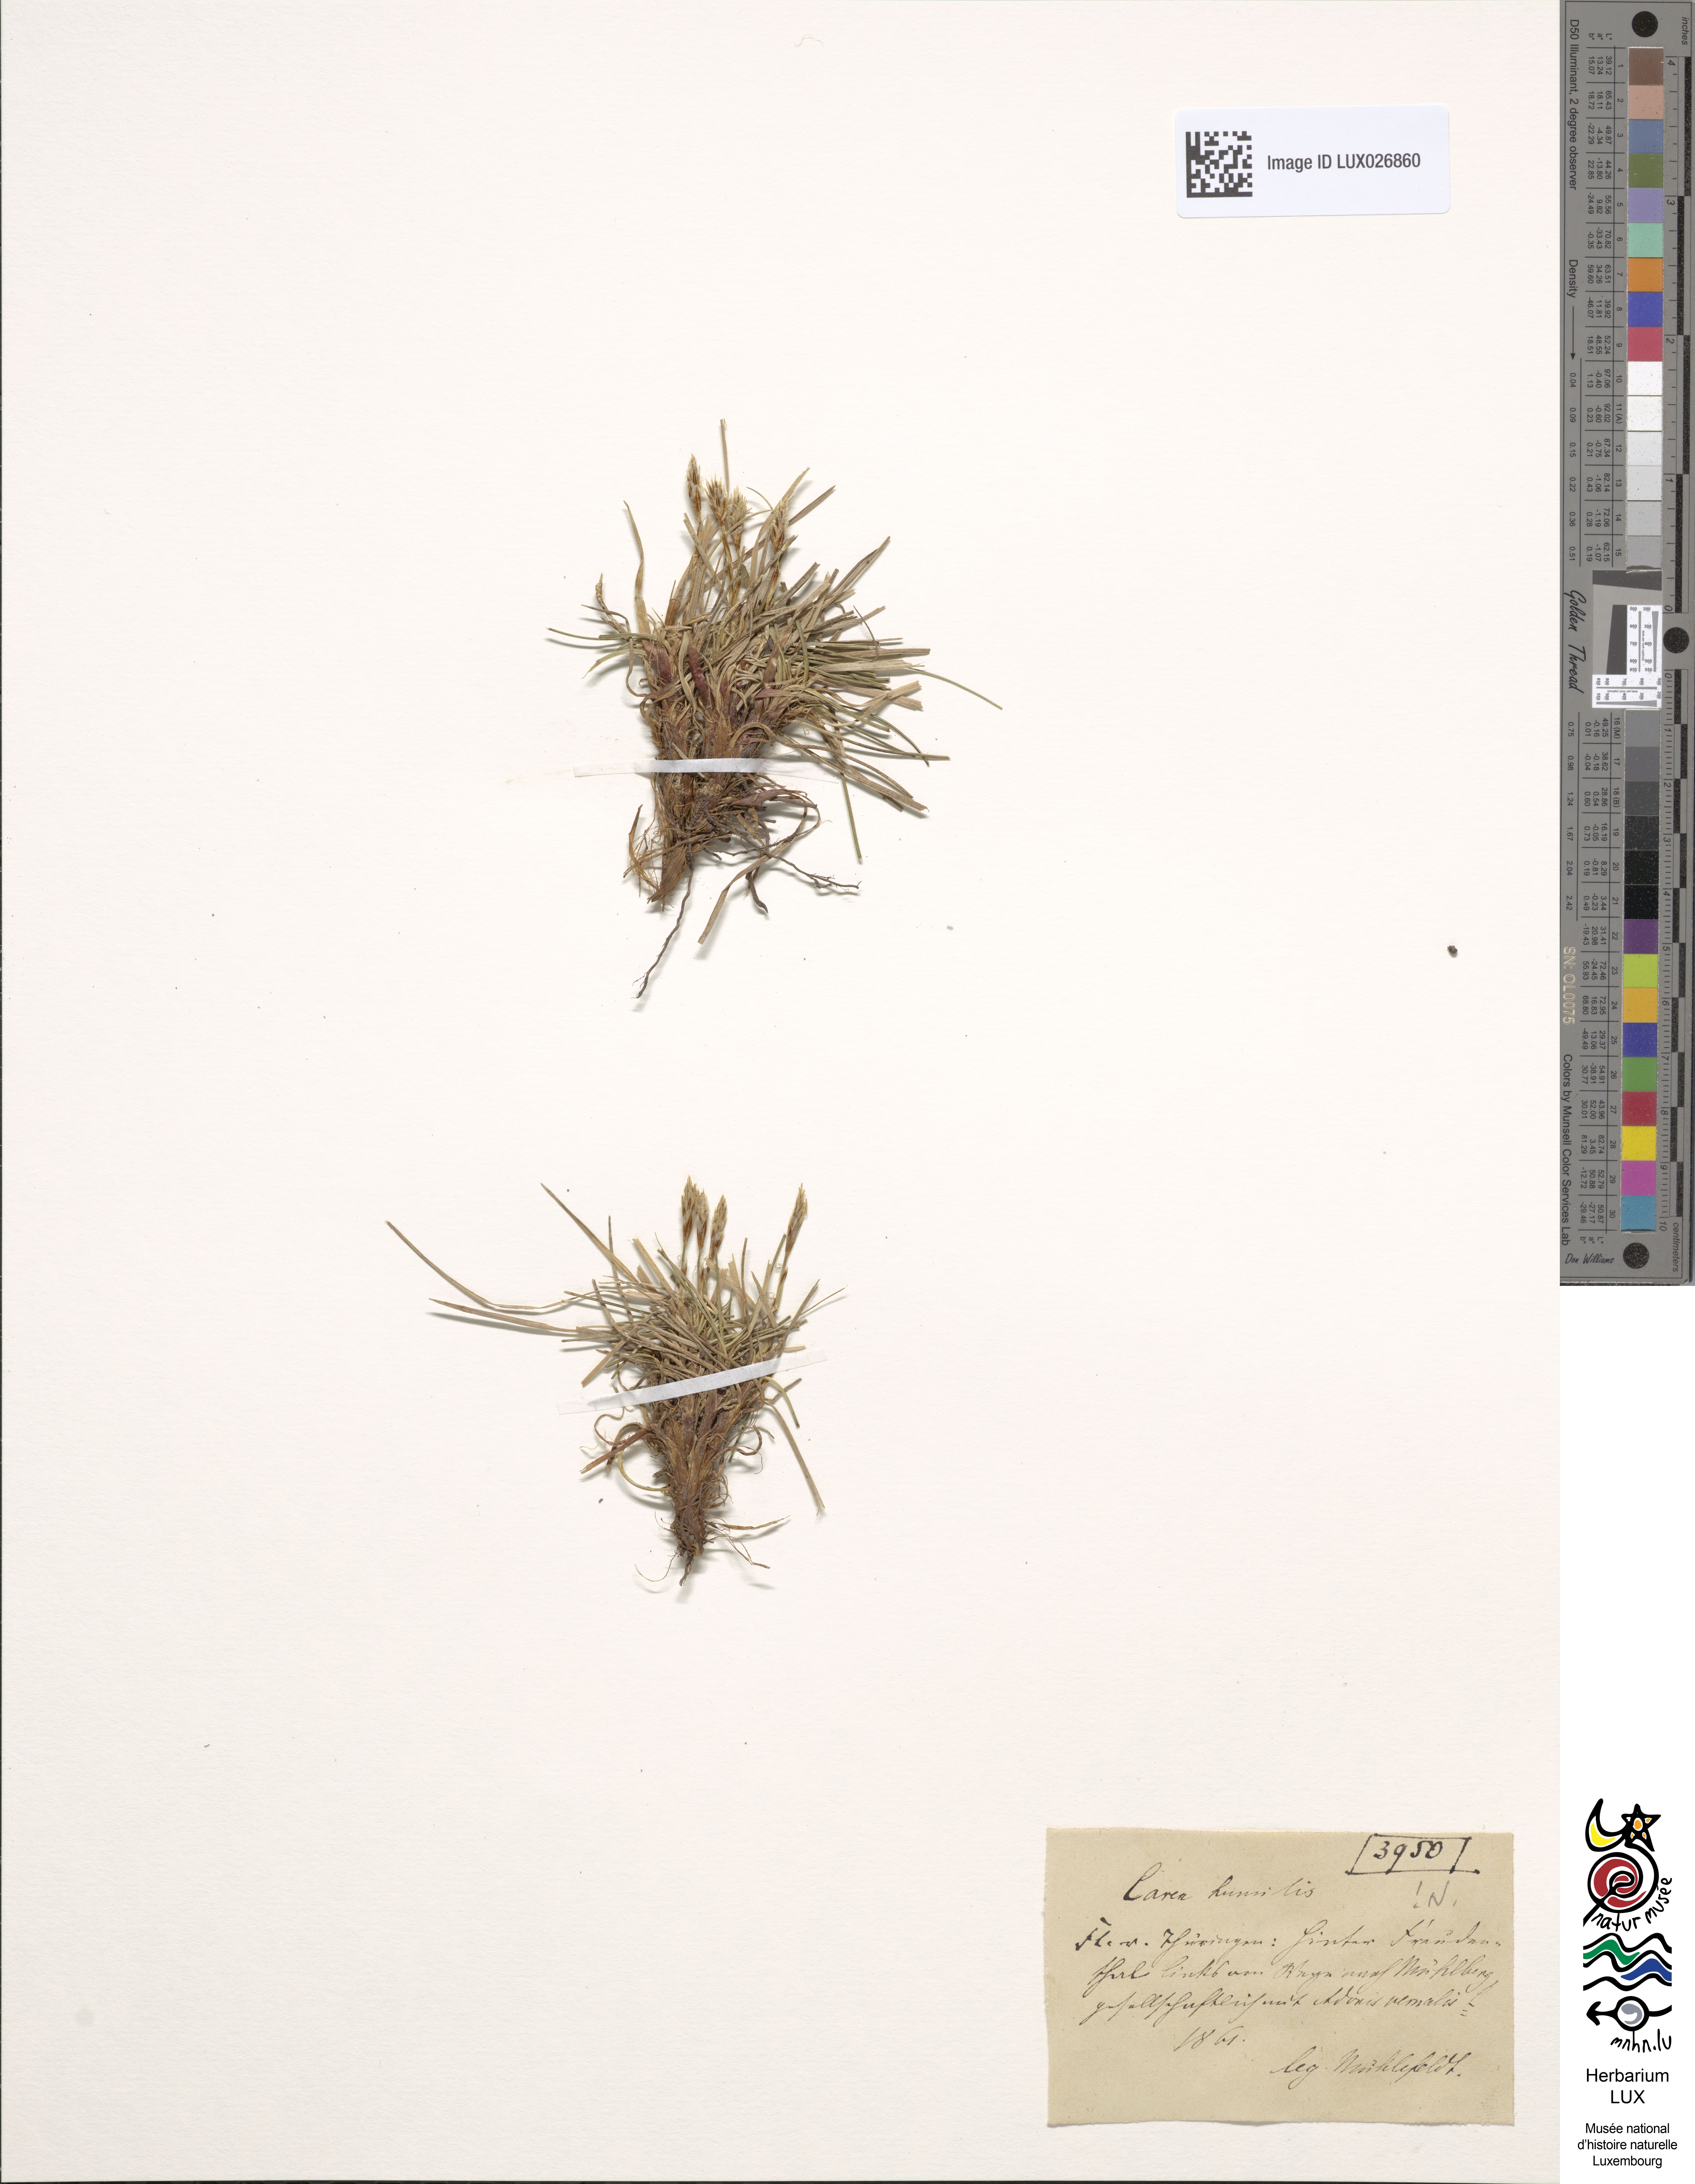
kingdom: Plantae
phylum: Tracheophyta
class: Liliopsida
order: Poales
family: Cyperaceae
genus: Carex
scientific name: Carex humilis
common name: Dwarf sedge
